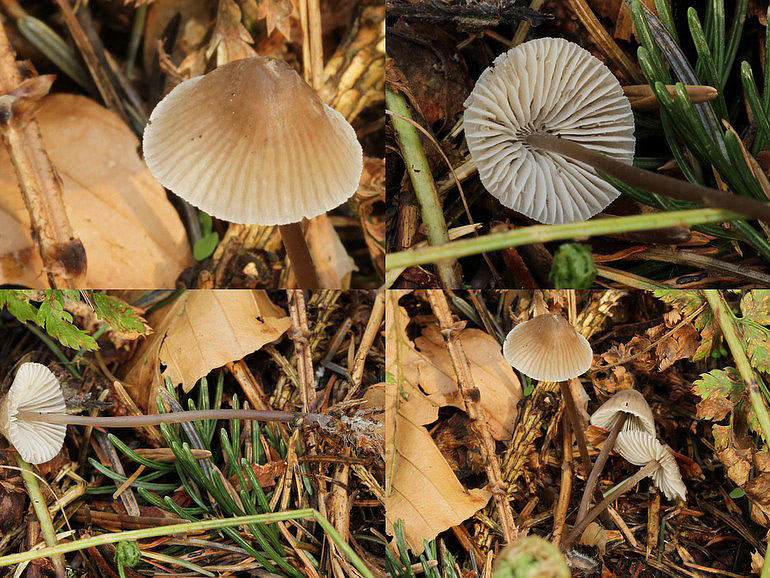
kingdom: Fungi
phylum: Basidiomycota
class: Agaricomycetes
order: Agaricales
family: Mycenaceae
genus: Mycena
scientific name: Mycena abramsii
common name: sommer-huesvamp
